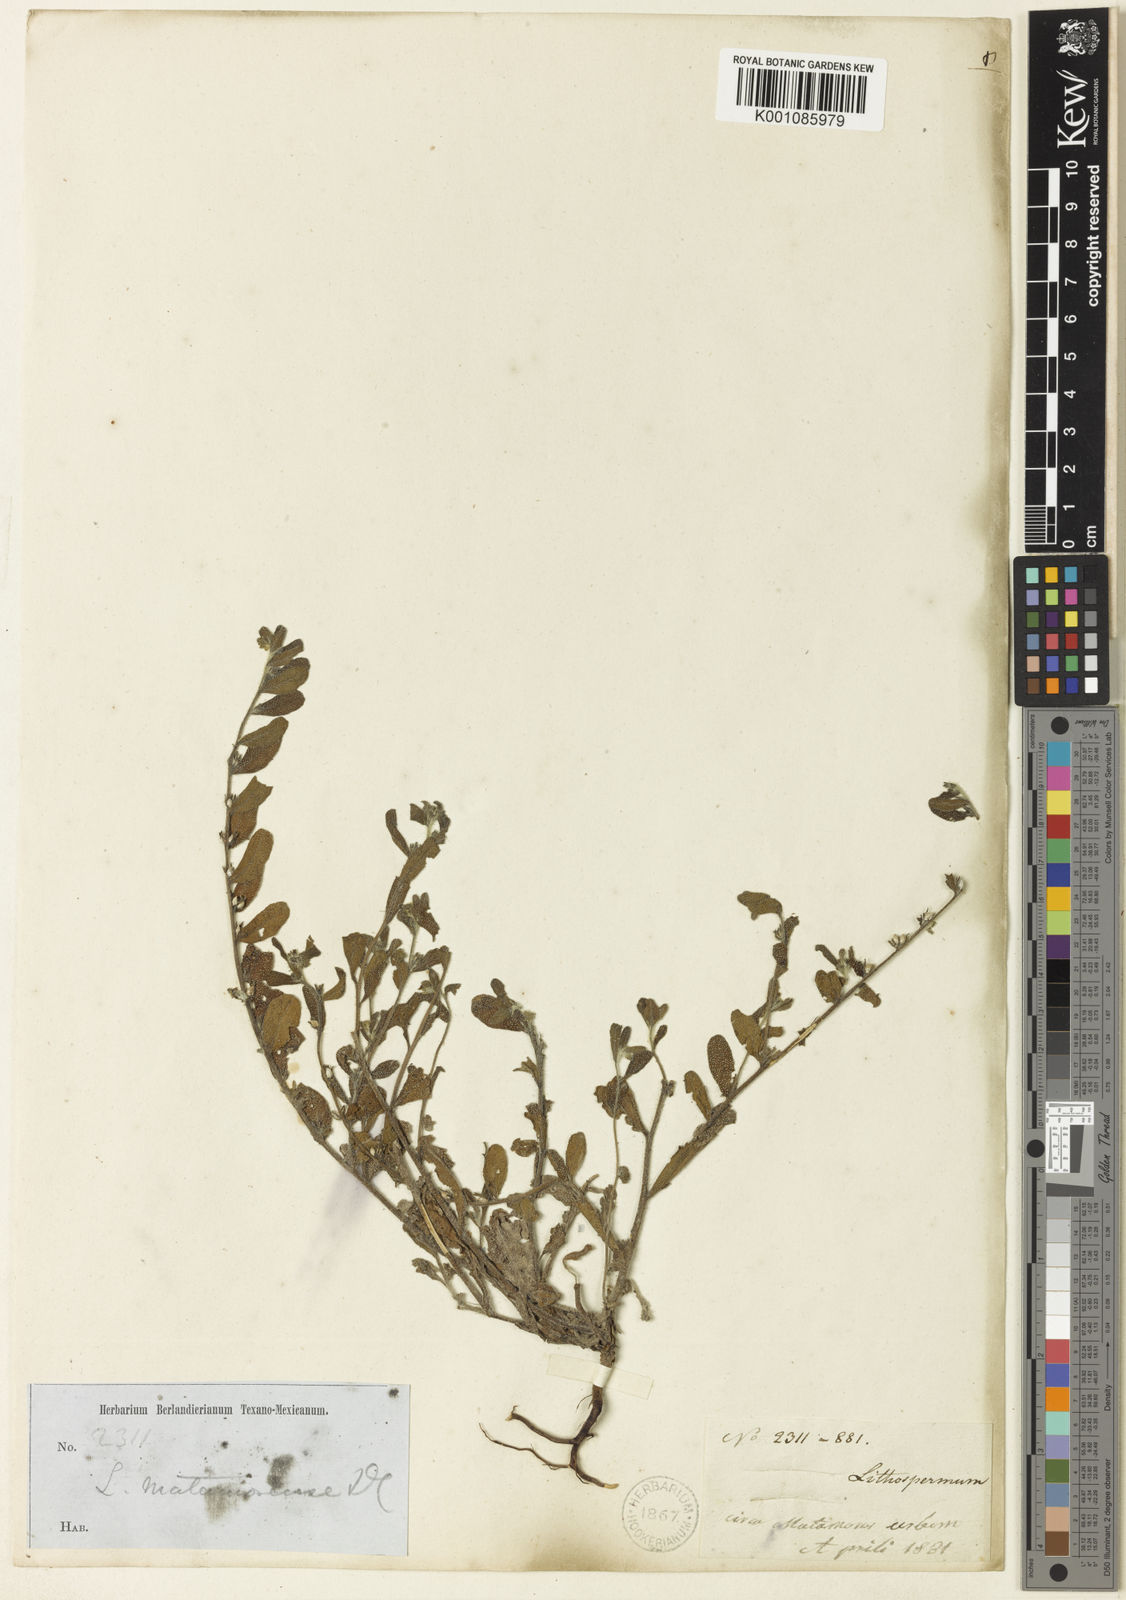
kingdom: Plantae
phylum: Tracheophyta
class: Magnoliopsida
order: Boraginales
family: Boraginaceae
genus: Lithospermum
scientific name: Lithospermum matamorense
